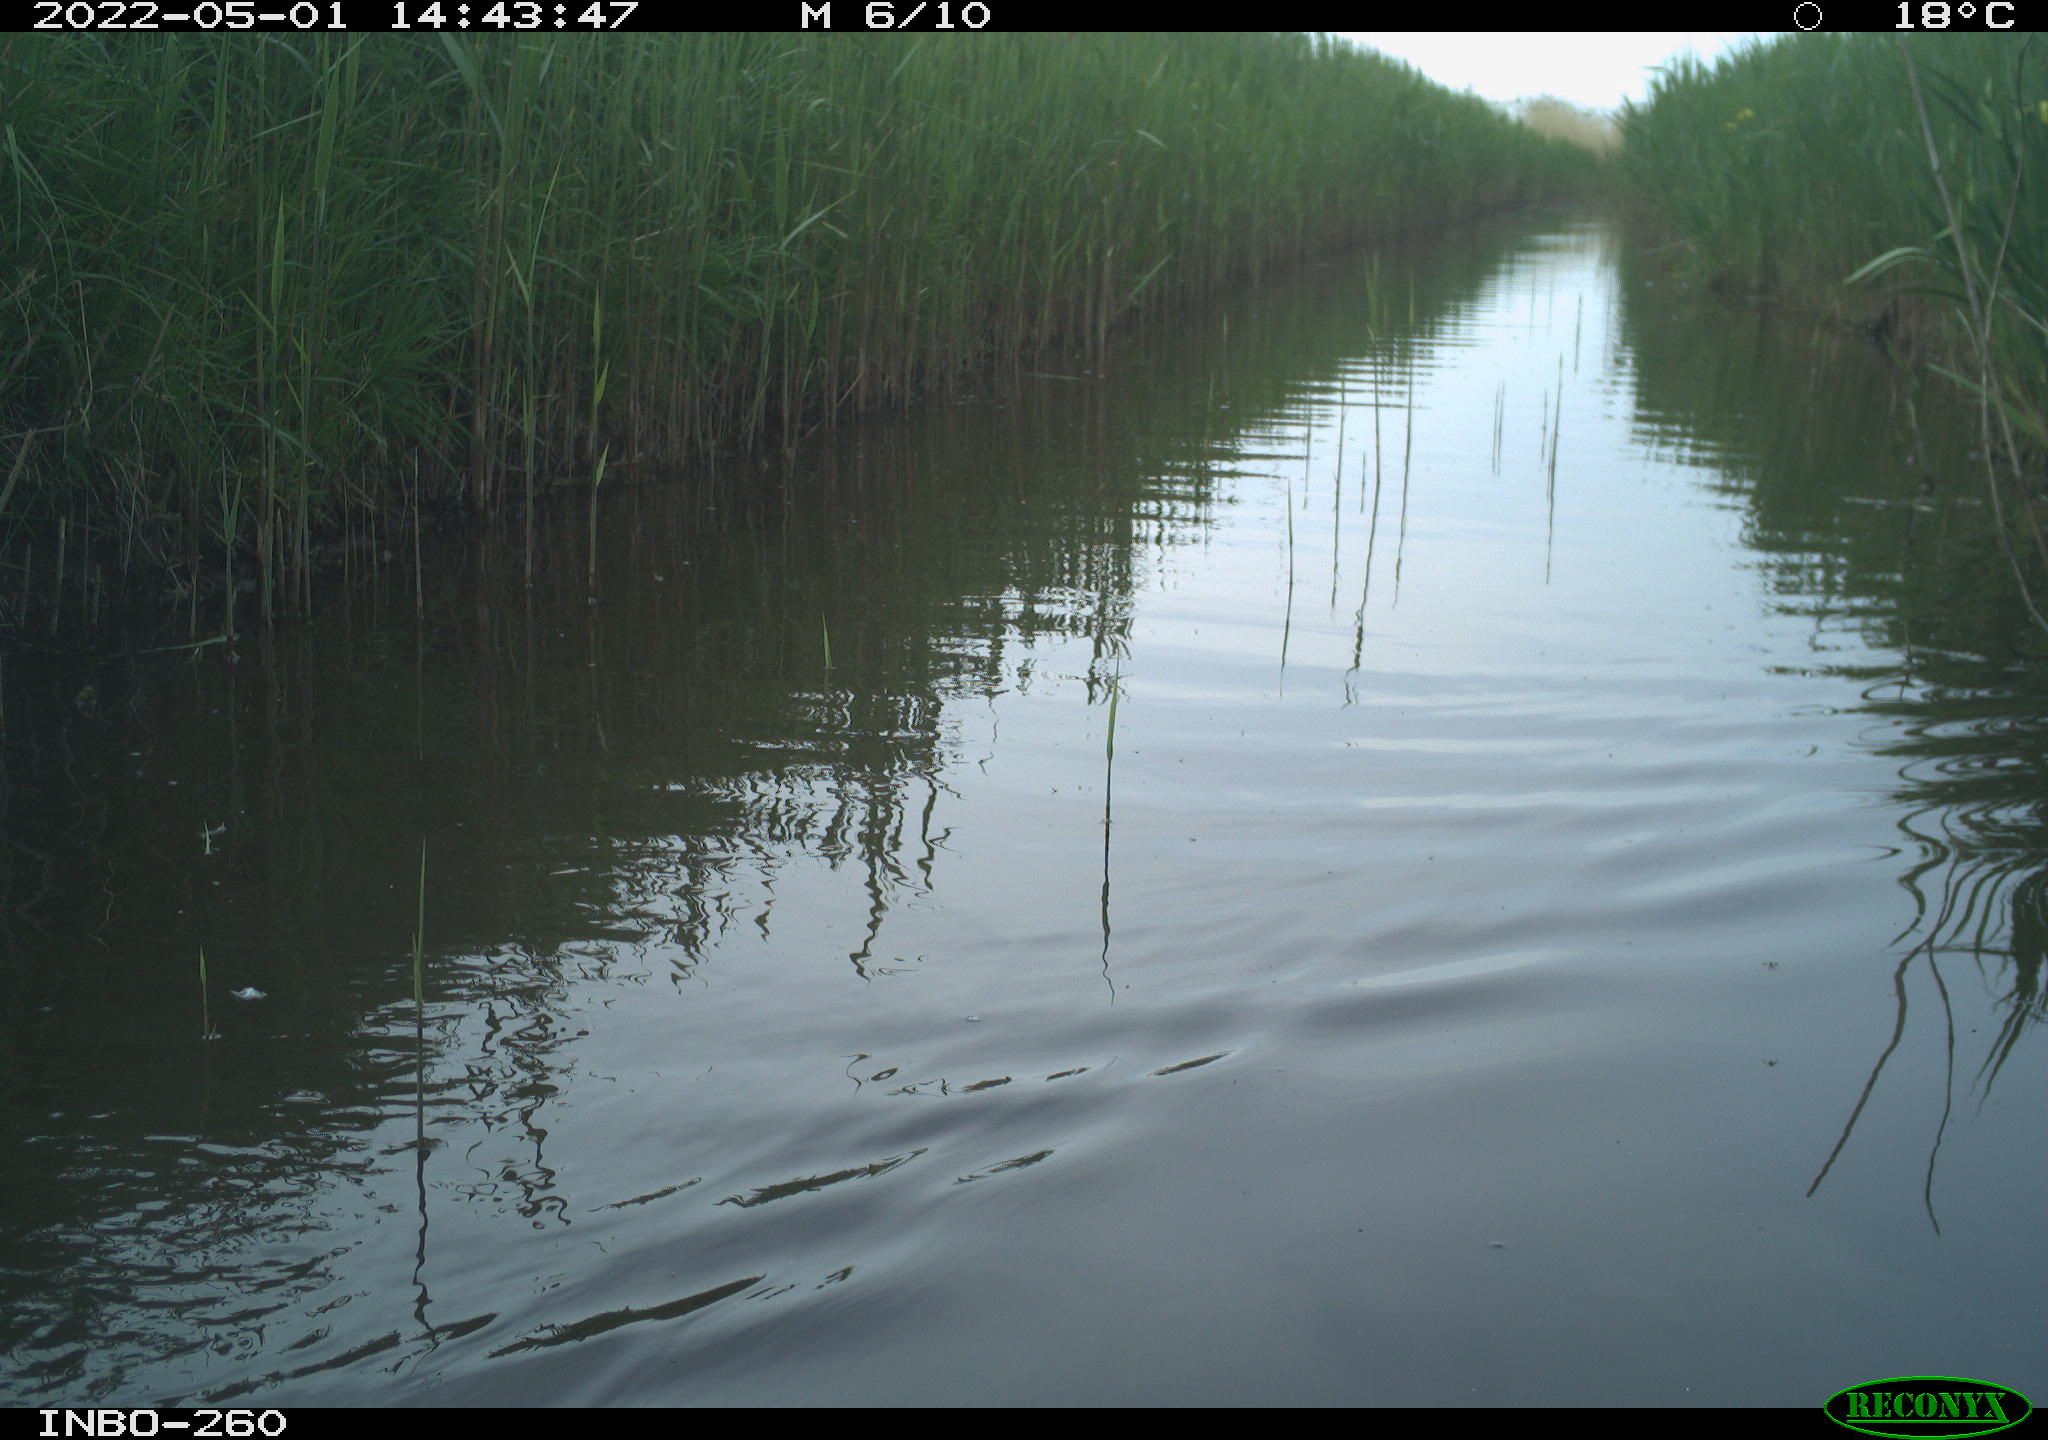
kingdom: Animalia
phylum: Chordata
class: Aves
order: Gruiformes
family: Rallidae
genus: Fulica
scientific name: Fulica atra
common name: Eurasian coot
